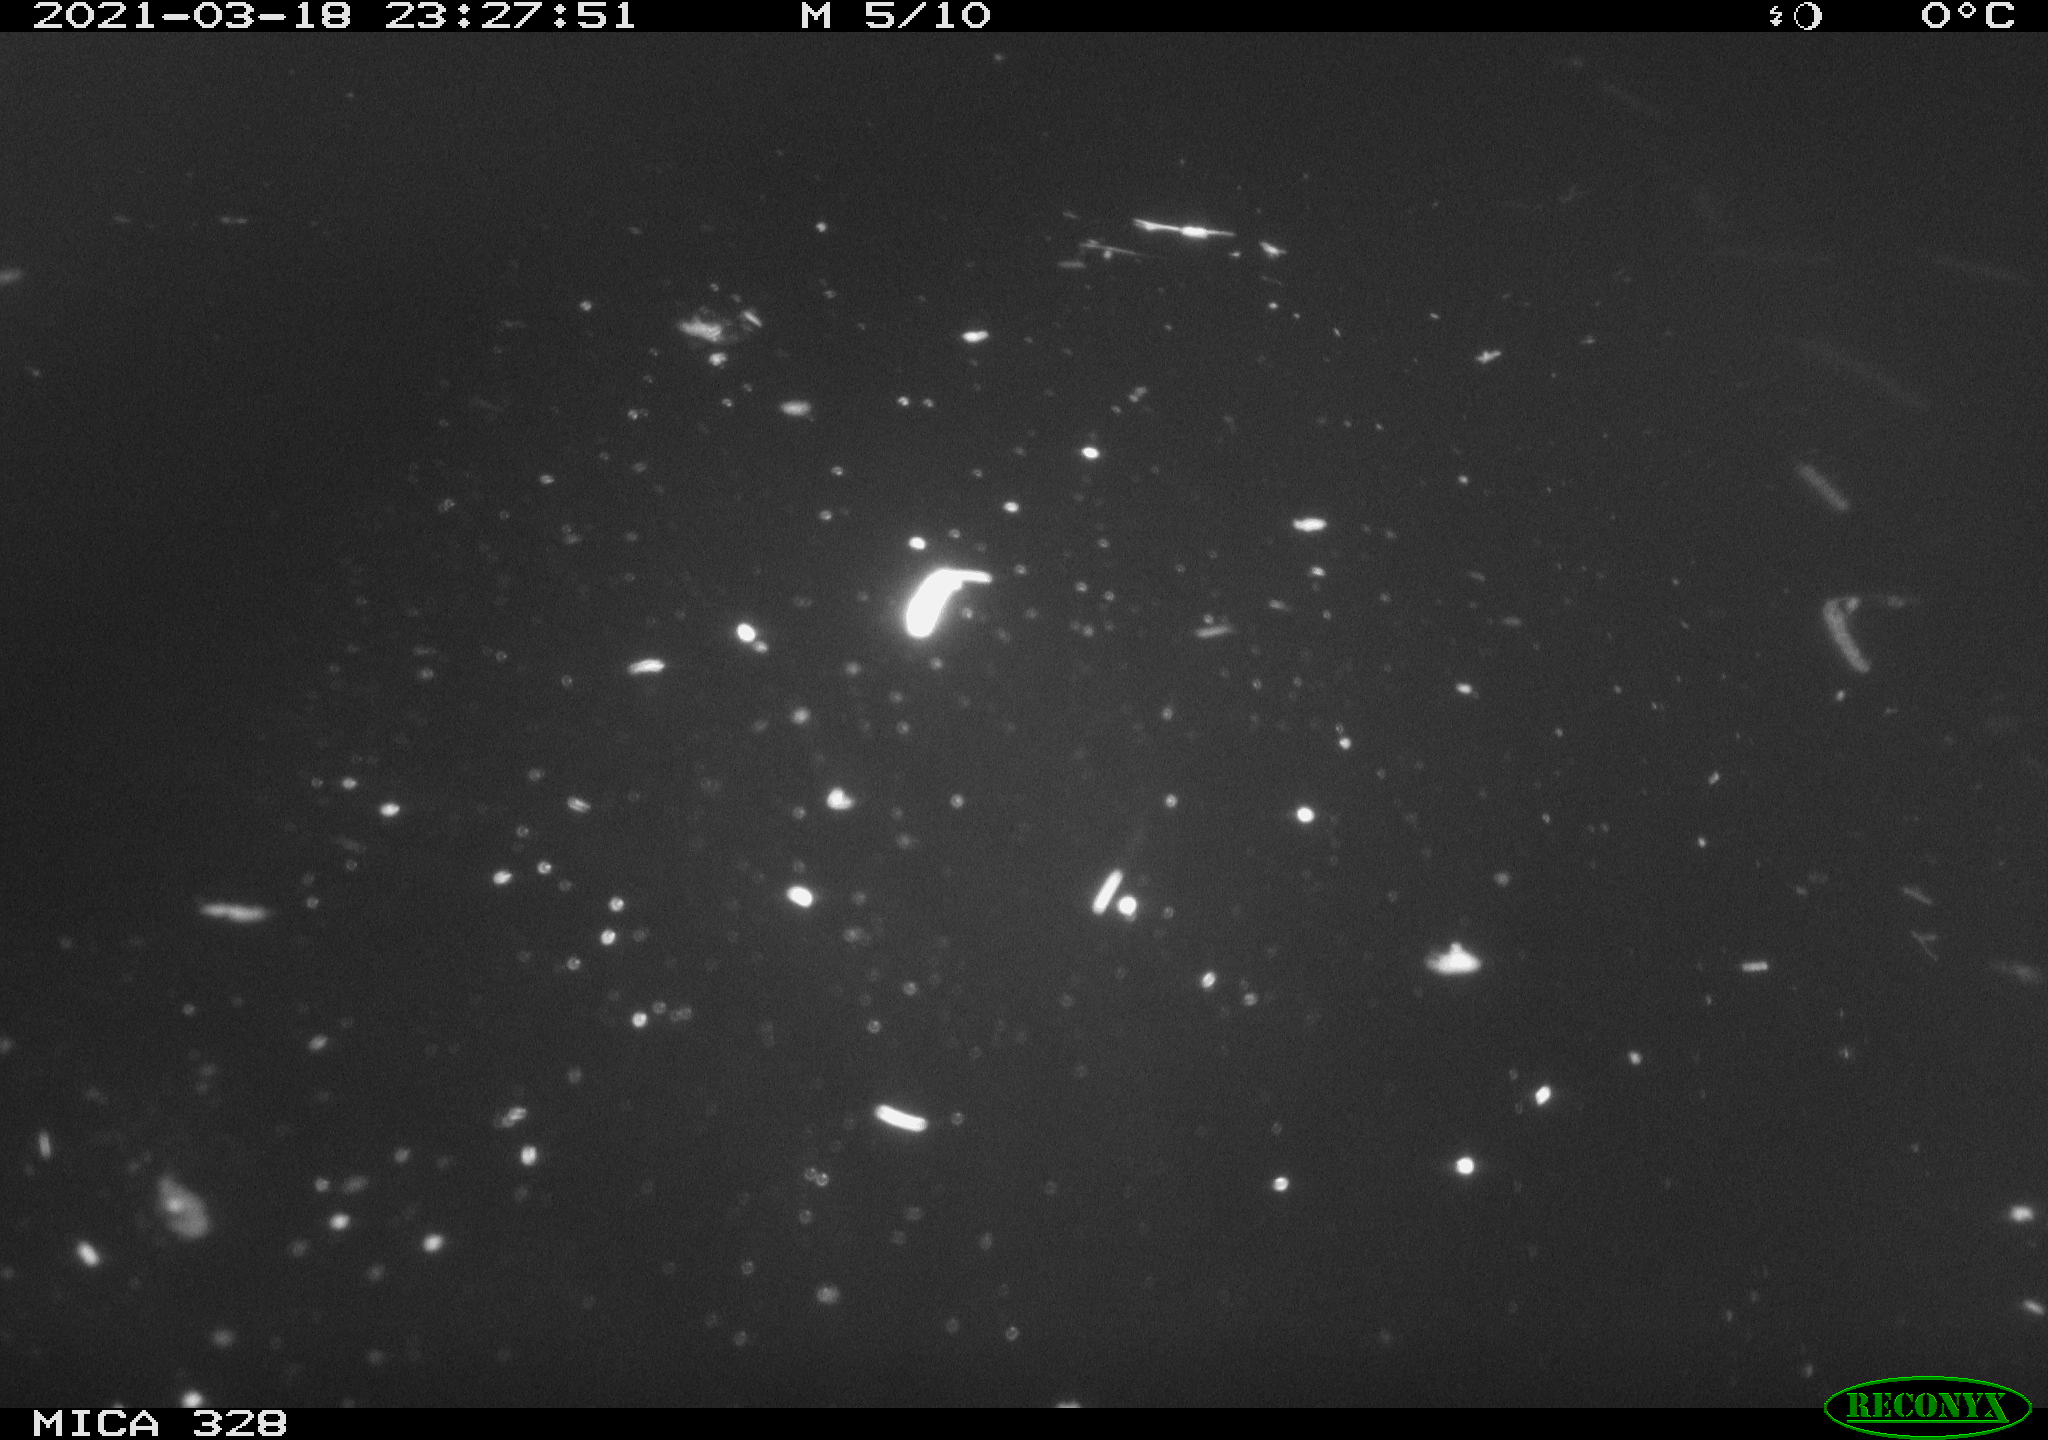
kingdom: Animalia
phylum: Chordata
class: Mammalia
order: Rodentia
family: Cricetidae
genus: Ondatra
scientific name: Ondatra zibethicus
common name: Muskrat
